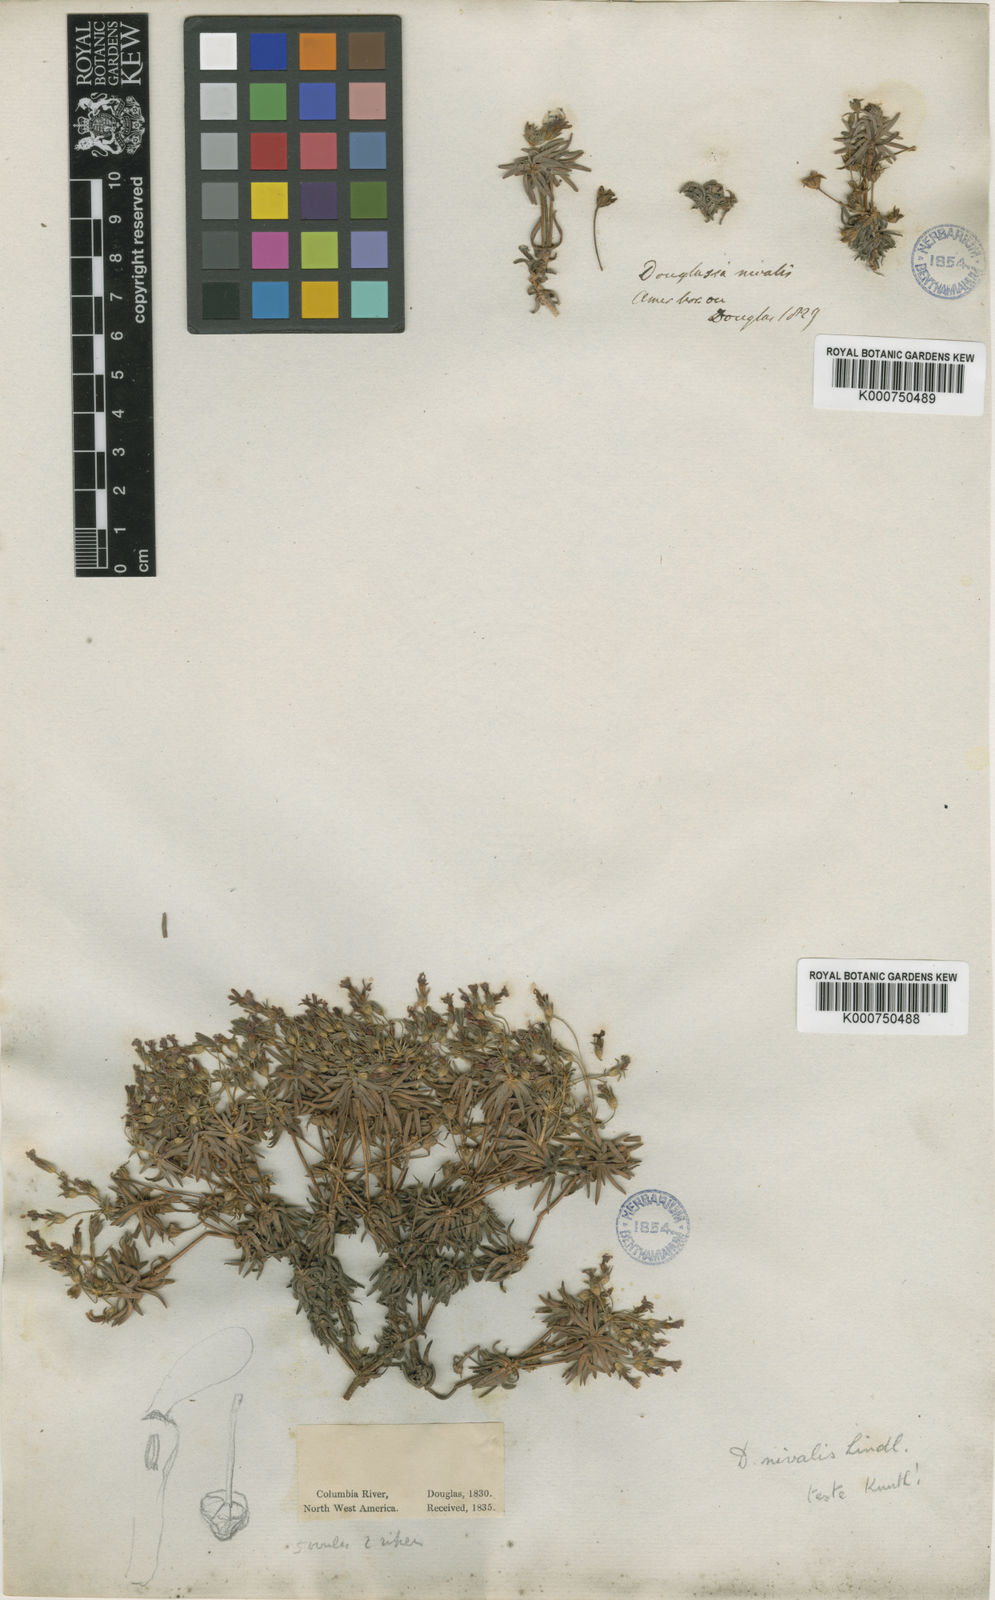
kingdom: Plantae
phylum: Tracheophyta
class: Magnoliopsida
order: Ericales
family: Primulaceae
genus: Androsace
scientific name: Androsace
